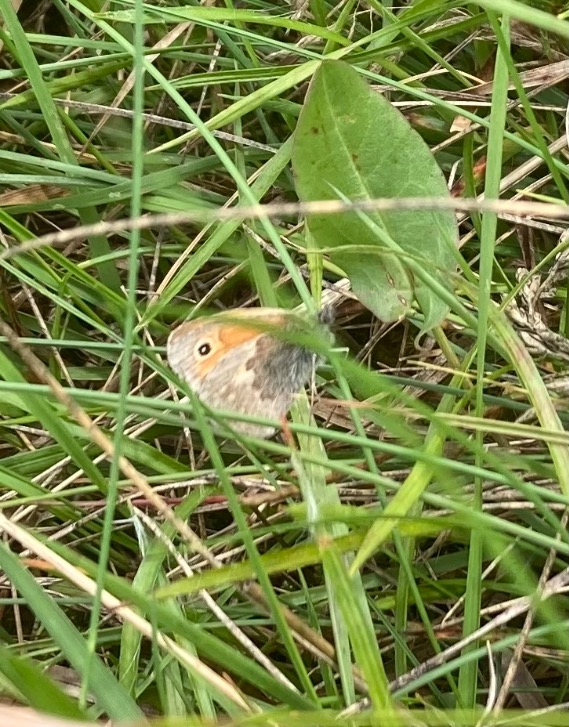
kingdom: Animalia
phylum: Arthropoda
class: Insecta
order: Lepidoptera
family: Nymphalidae
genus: Coenonympha
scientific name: Coenonympha pamphilus
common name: Okkergul randøje
